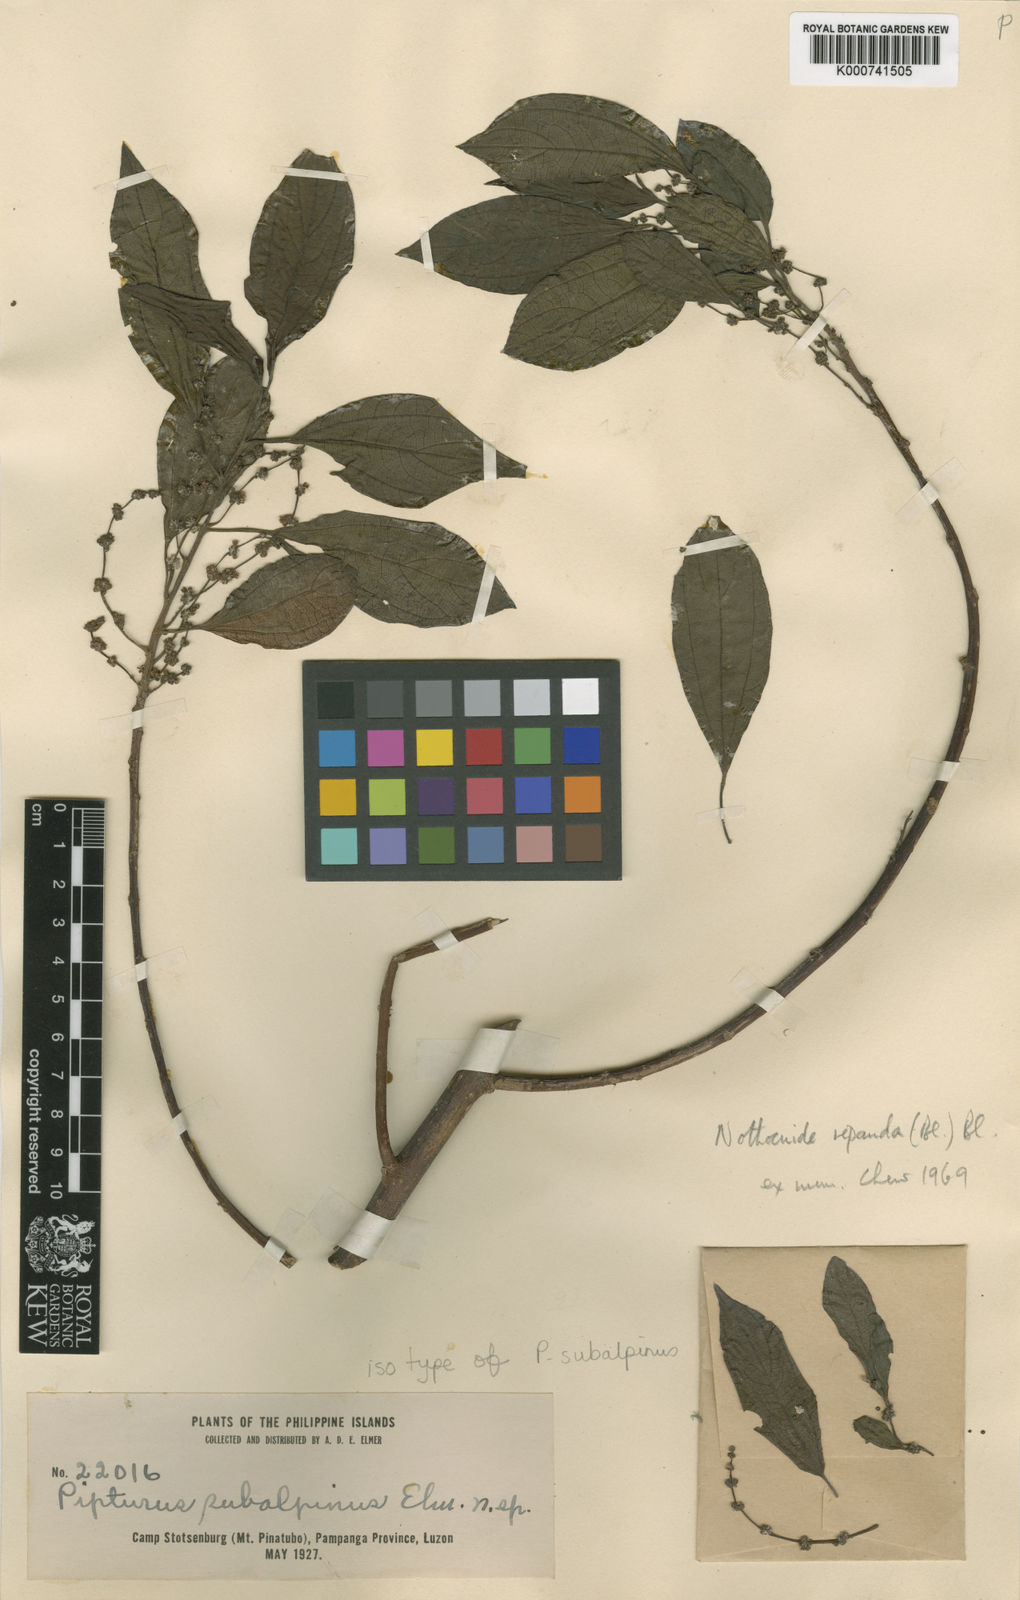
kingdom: Plantae
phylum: Tracheophyta
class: Magnoliopsida
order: Rosales
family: Urticaceae
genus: Nothocnide
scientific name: Nothocnide repanda
